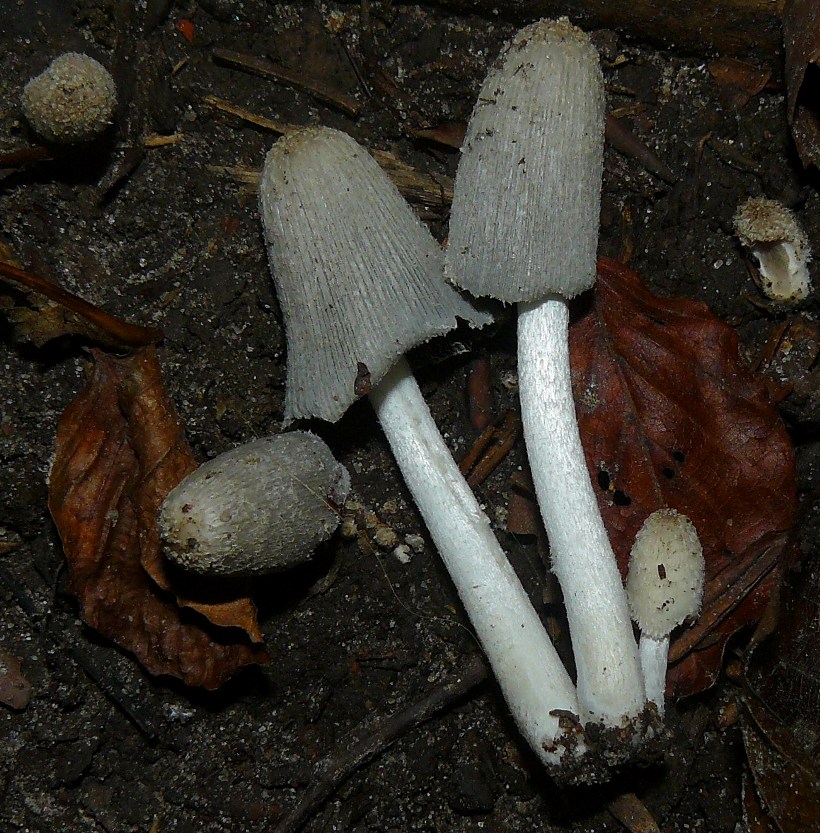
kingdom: Fungi
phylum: Basidiomycota
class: Agaricomycetes
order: Agaricales
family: Psathyrellaceae
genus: Coprinopsis
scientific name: Coprinopsis lagopus
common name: dunstokket blækhat
